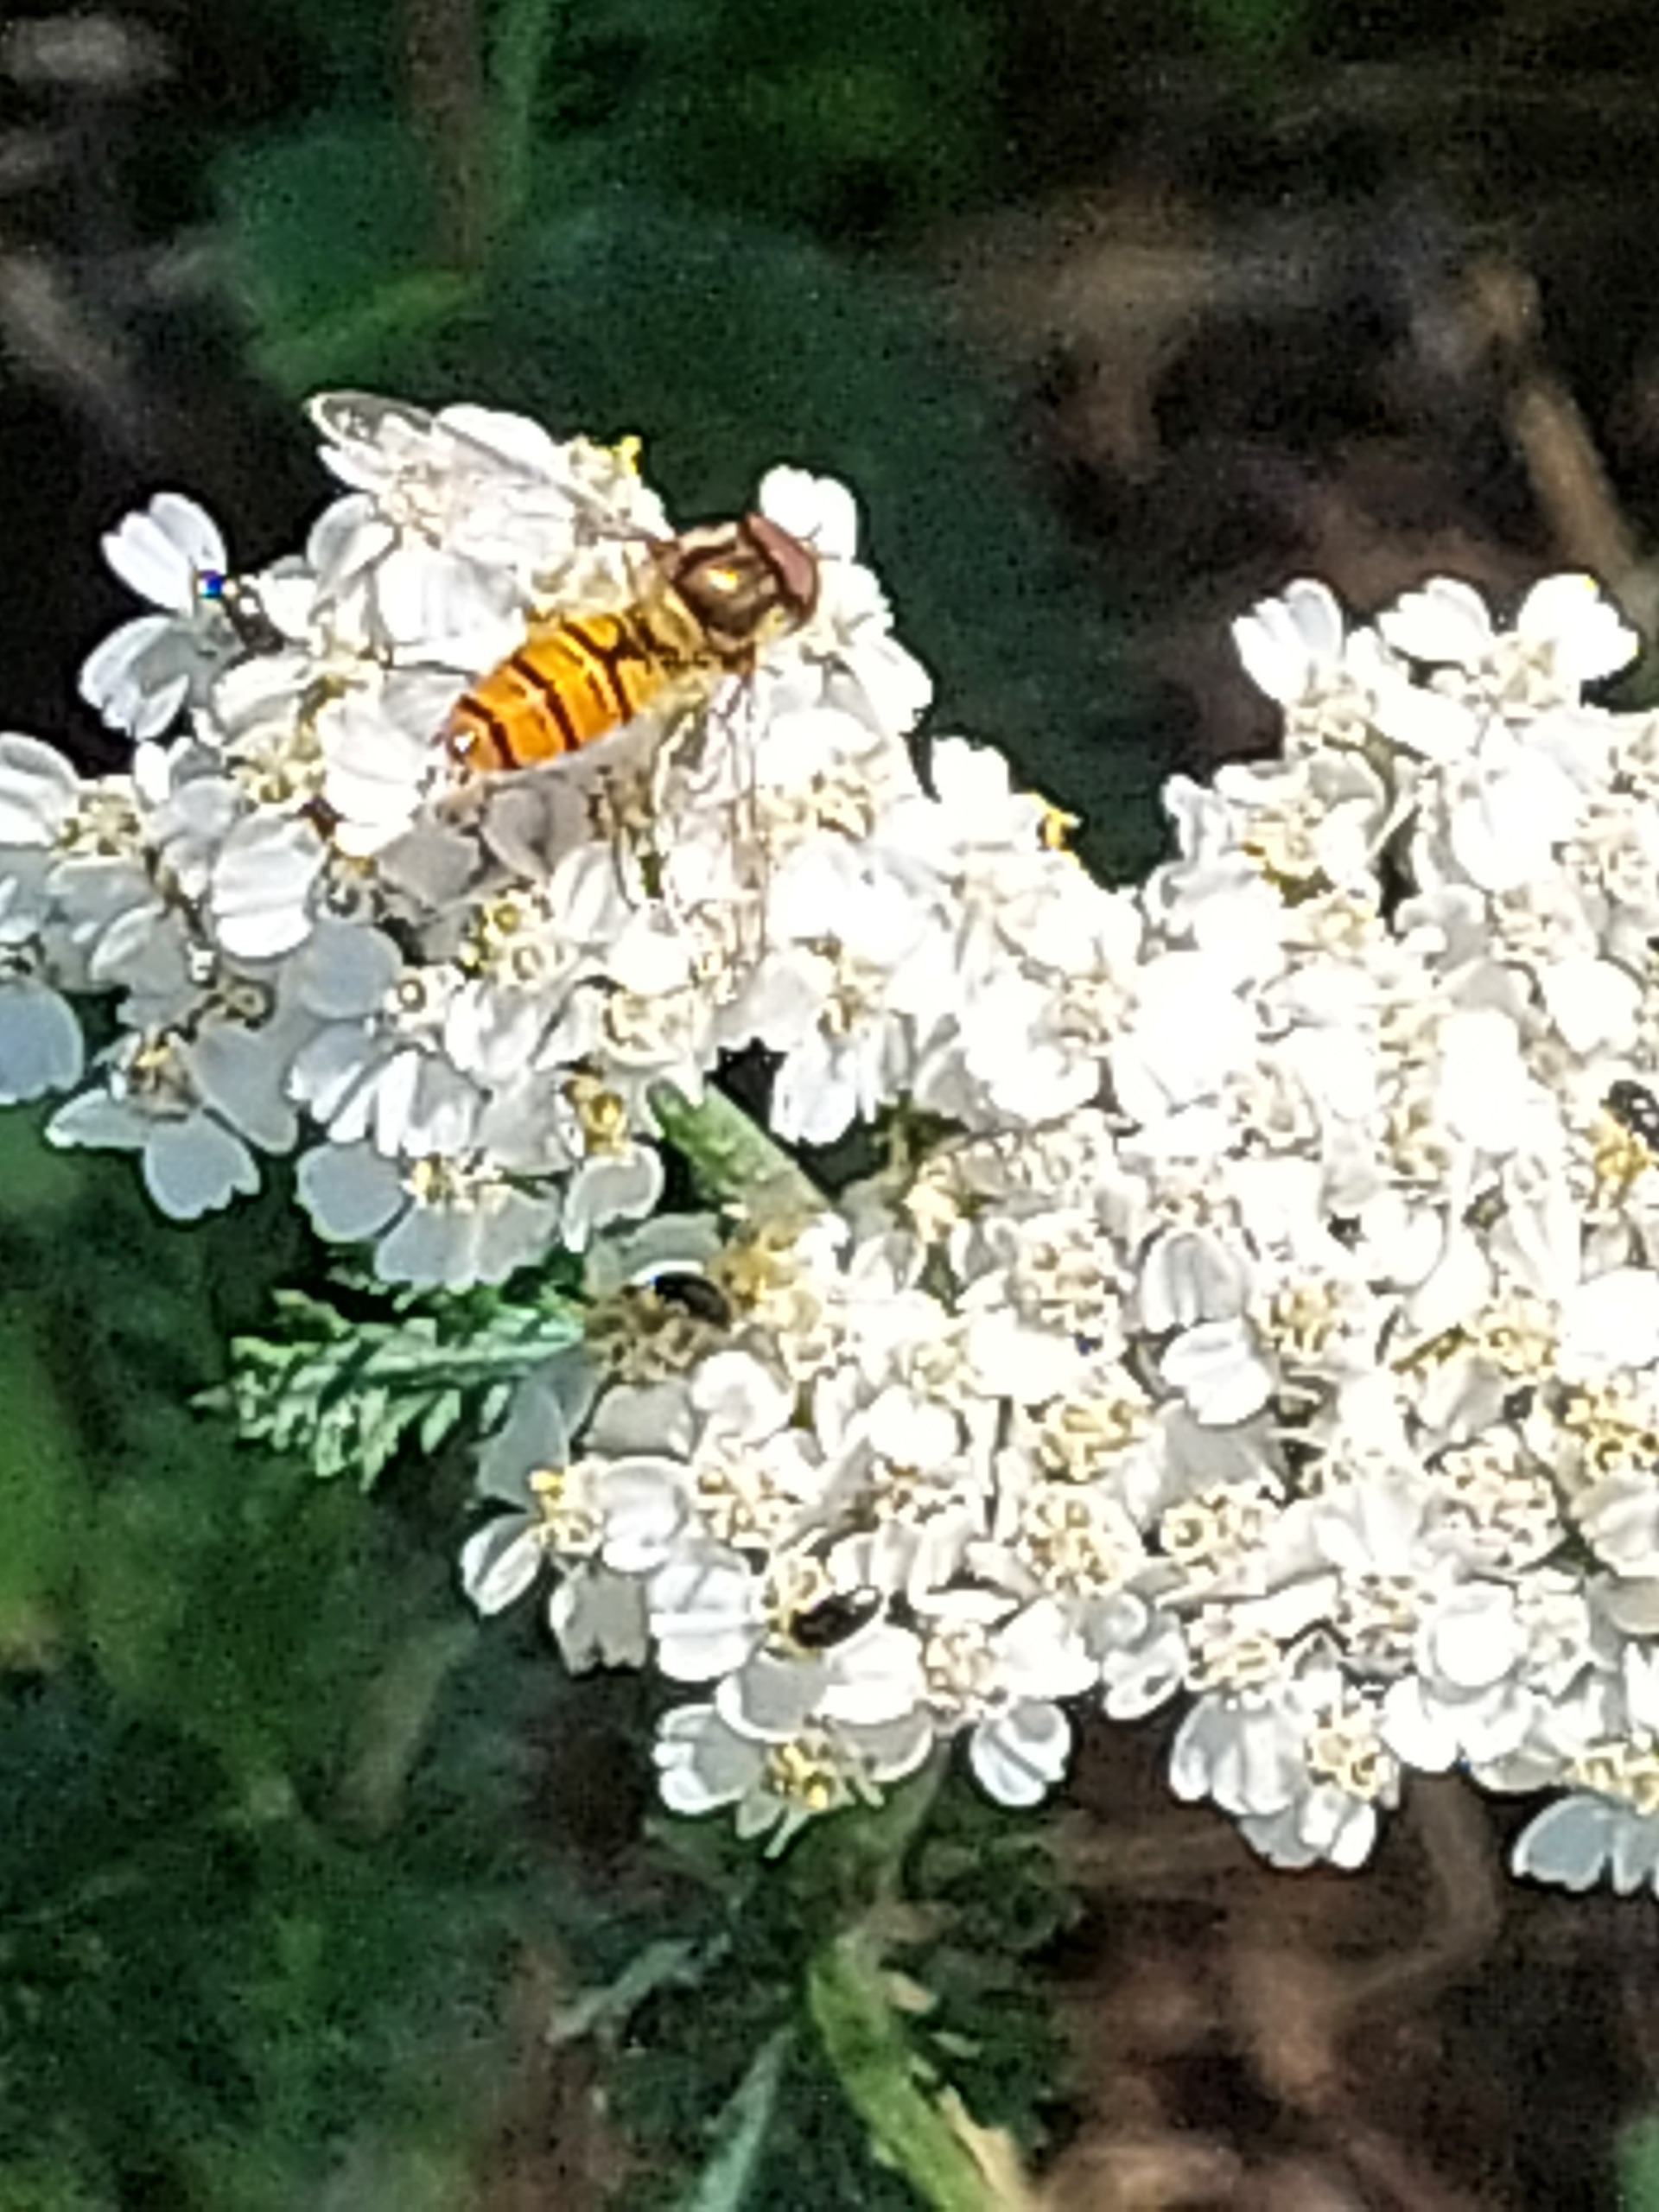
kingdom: Animalia
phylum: Arthropoda
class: Insecta
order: Diptera
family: Syrphidae
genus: Episyrphus
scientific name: Episyrphus balteatus
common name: Dobbeltbåndet svirreflue
